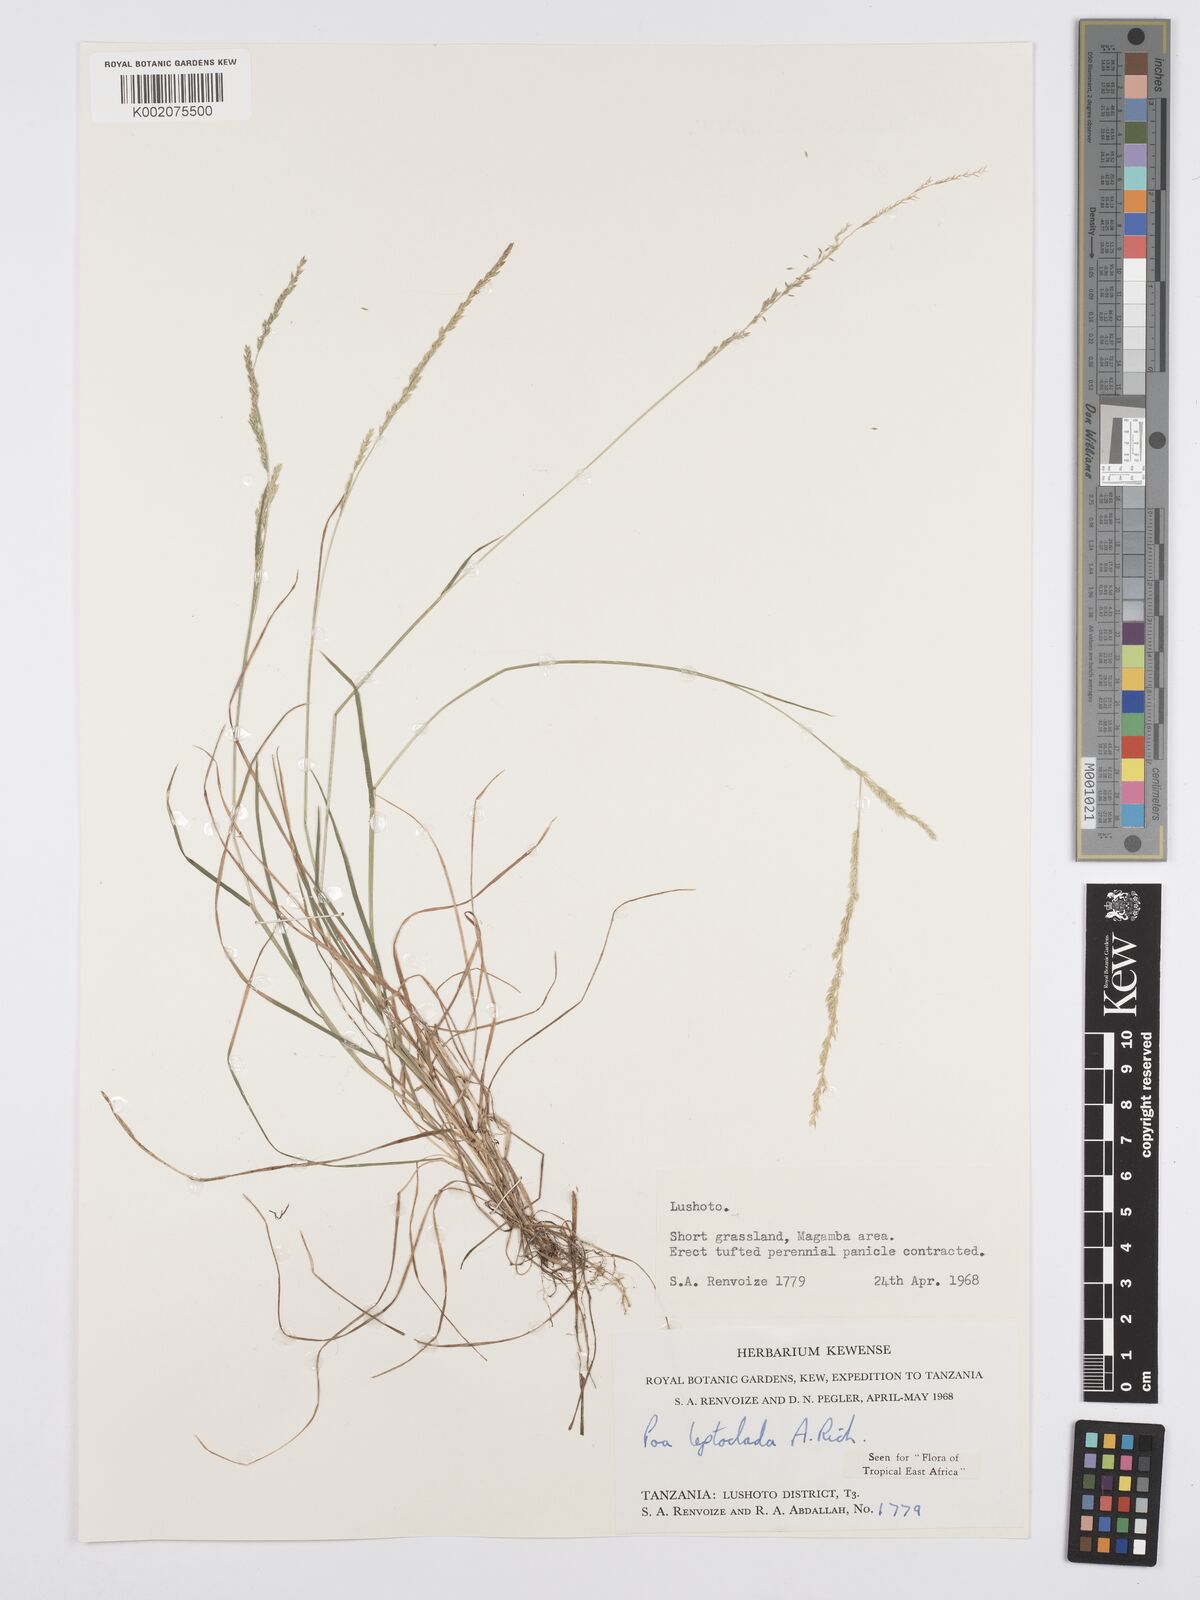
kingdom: Plantae
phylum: Tracheophyta
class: Liliopsida
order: Poales
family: Poaceae
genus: Poa
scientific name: Poa leptoclada
